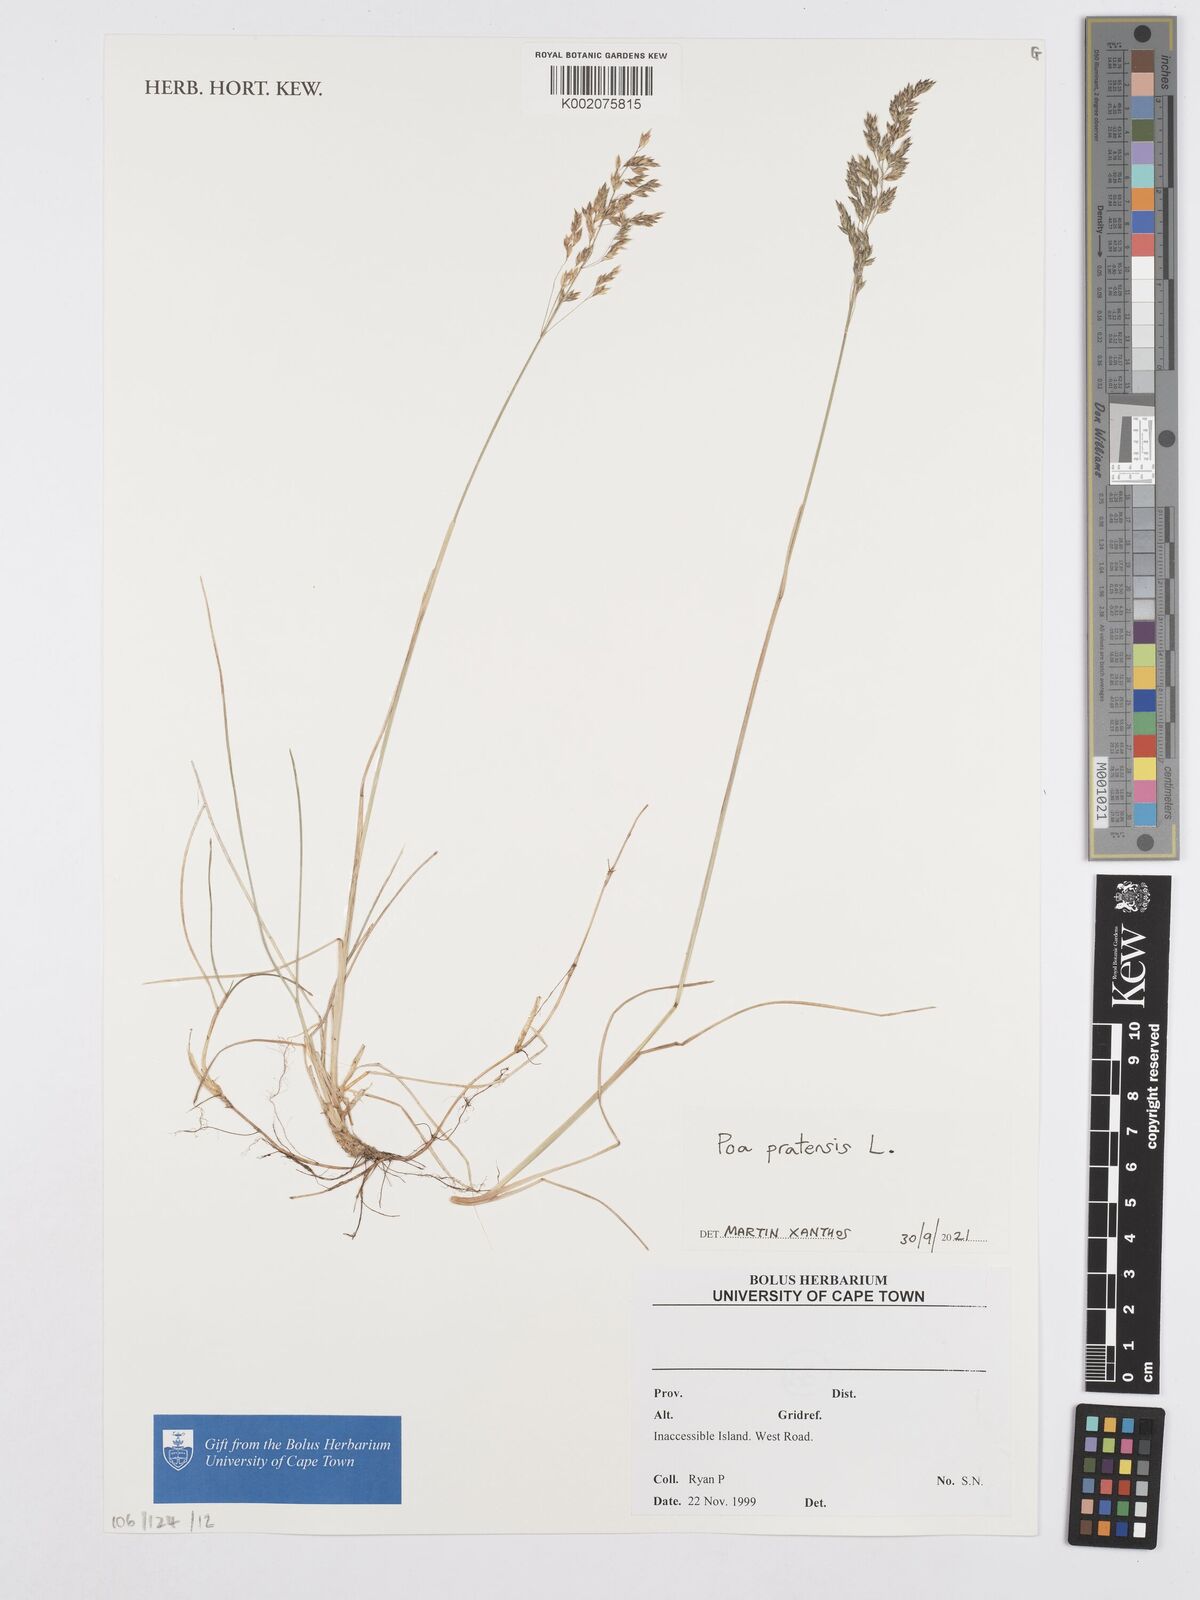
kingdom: Plantae
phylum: Tracheophyta
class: Liliopsida
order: Poales
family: Poaceae
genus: Poa
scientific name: Poa pratensis
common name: Kentucky bluegrass
